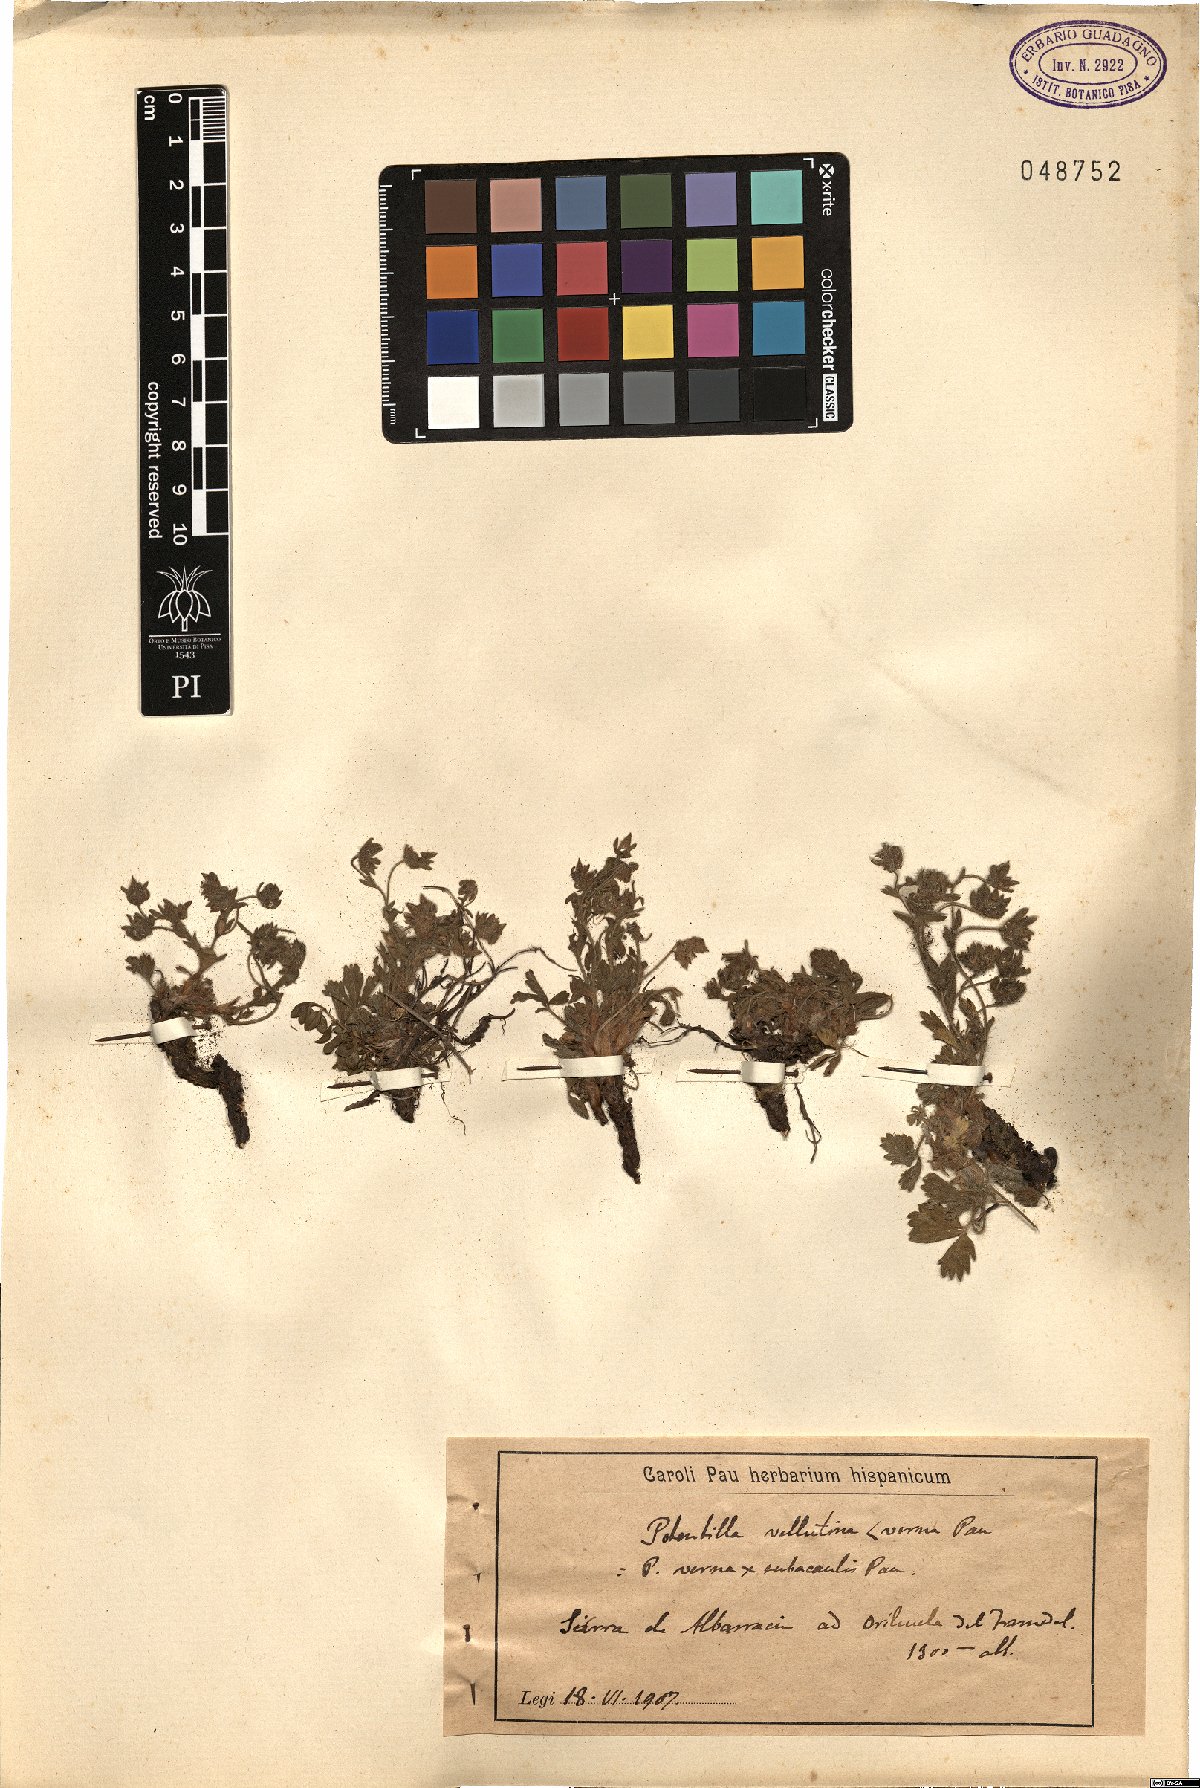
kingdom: Plantae
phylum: Tracheophyta
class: Magnoliopsida
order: Rosales
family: Rosaceae
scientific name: Rosaceae
